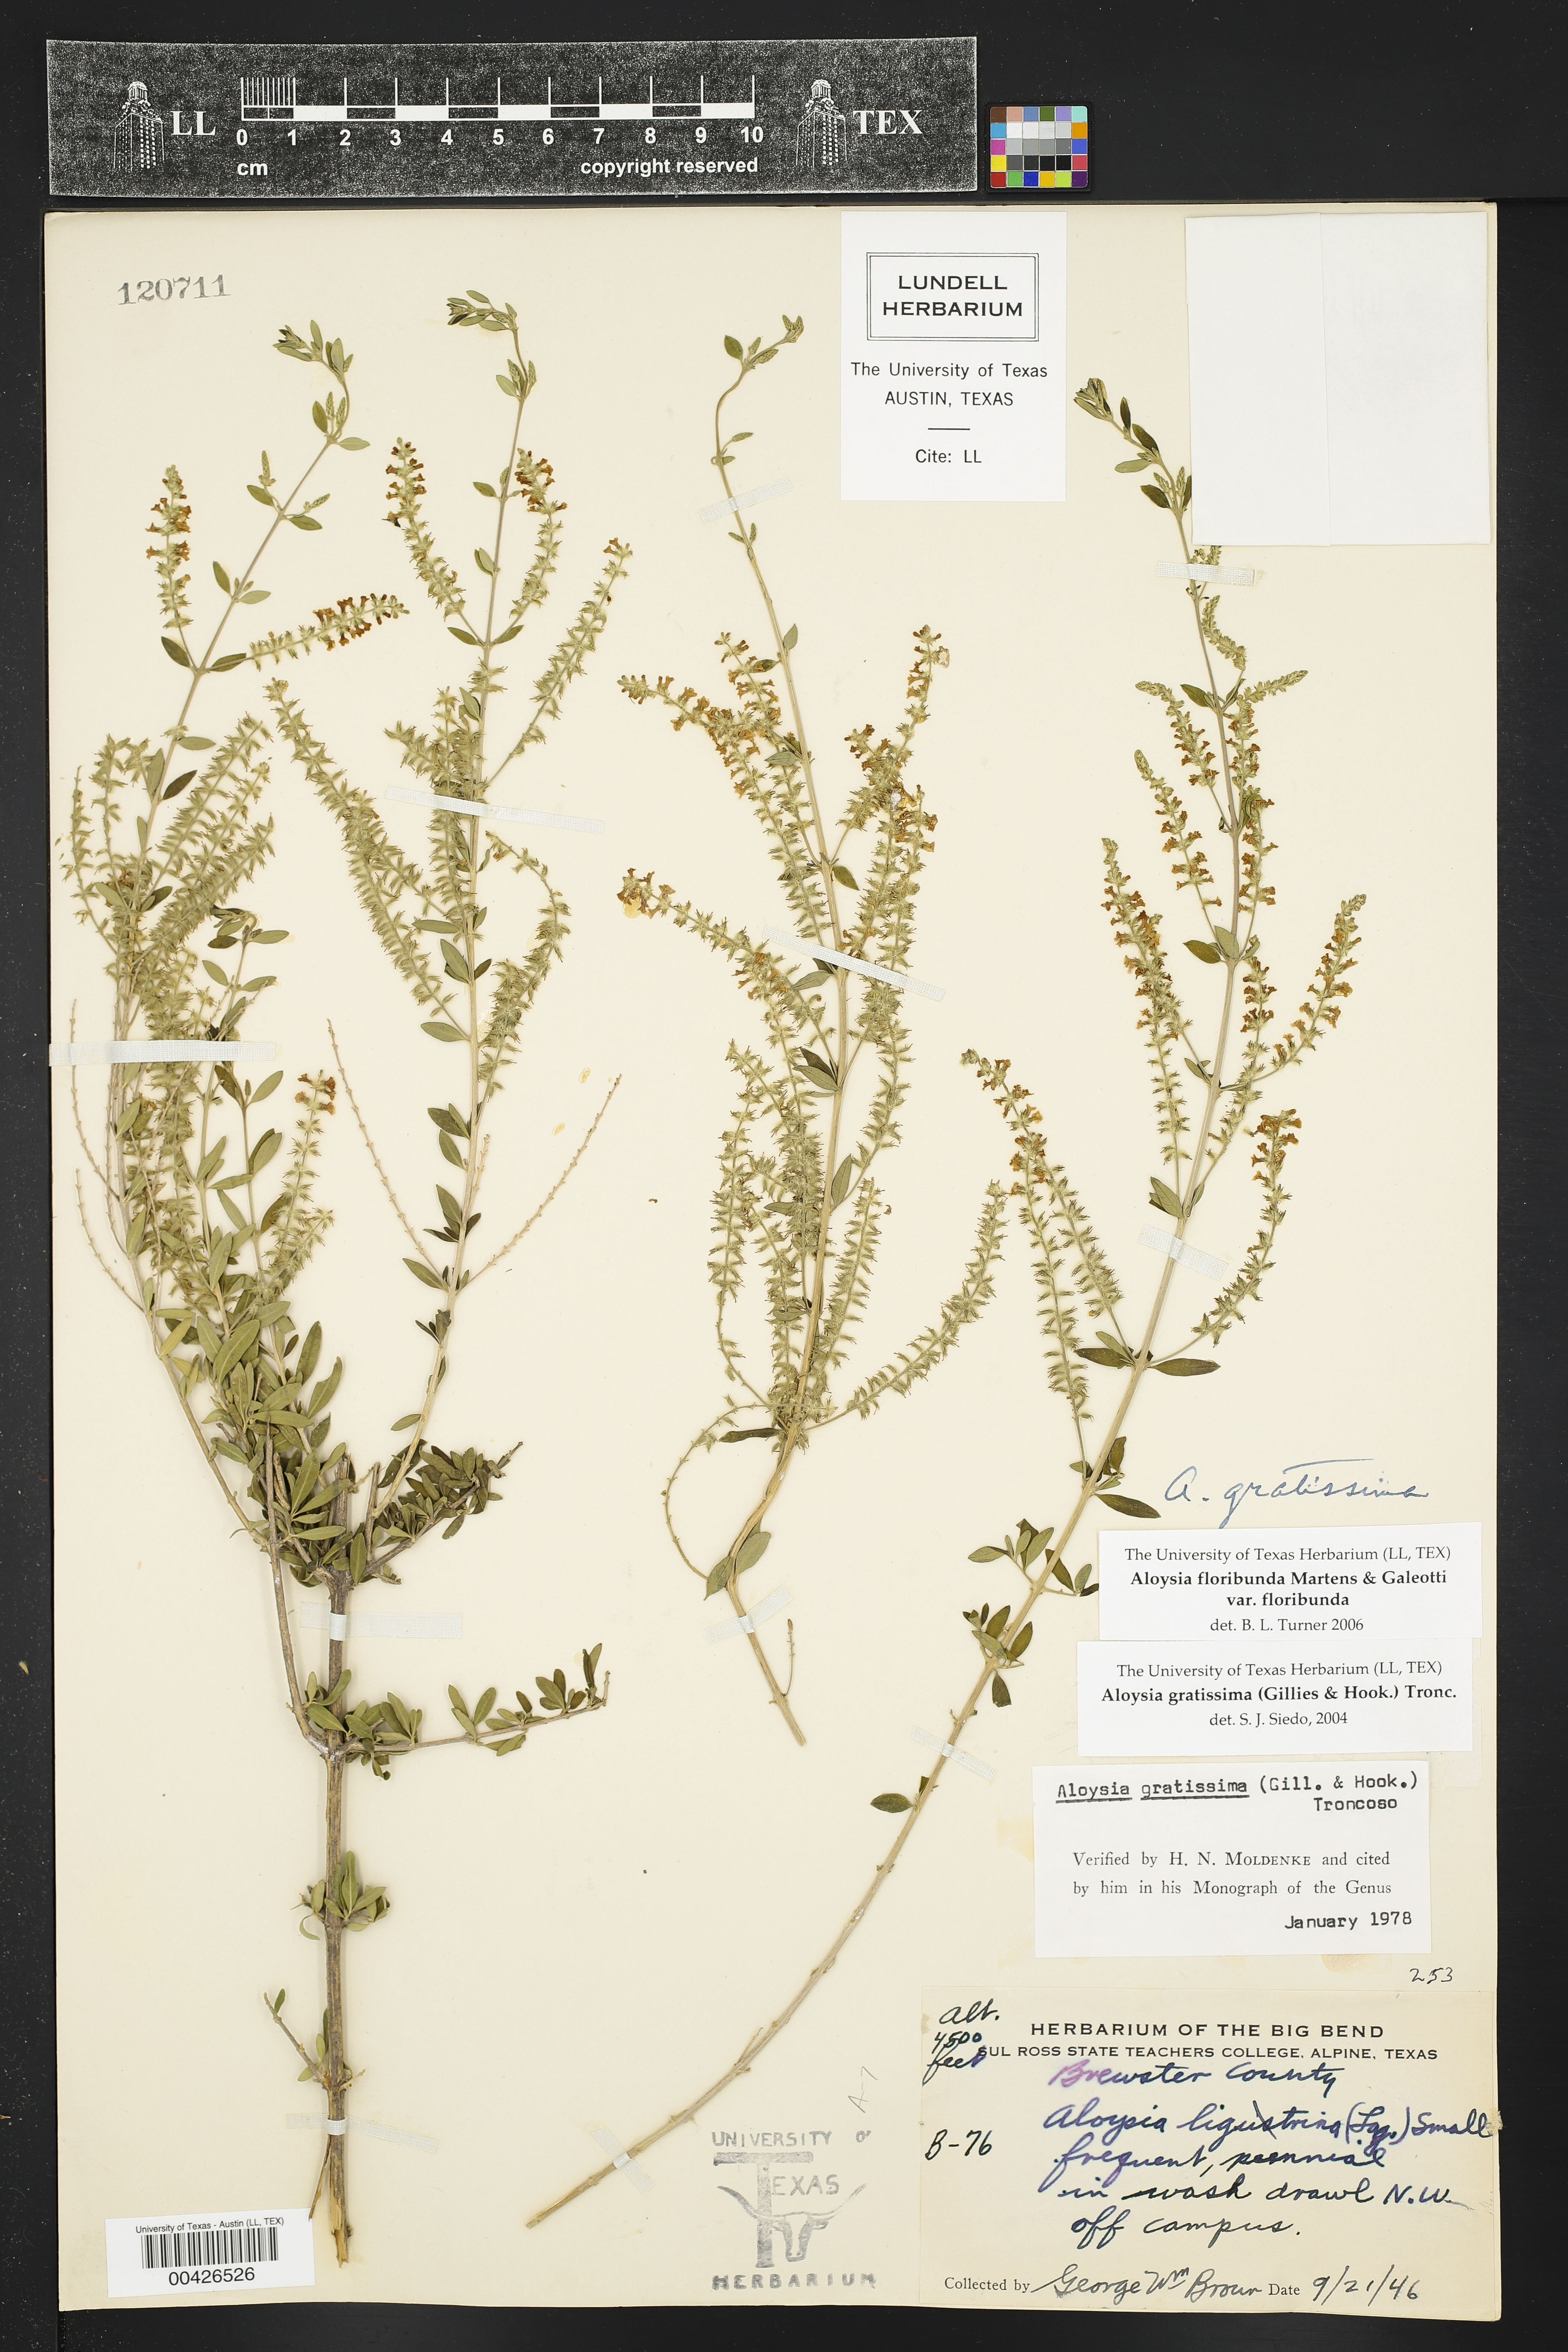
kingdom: Plantae
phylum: Tracheophyta
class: Magnoliopsida
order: Lamiales
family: Verbenaceae
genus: Aloysia
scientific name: Aloysia gratissima
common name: Common bee-brush
